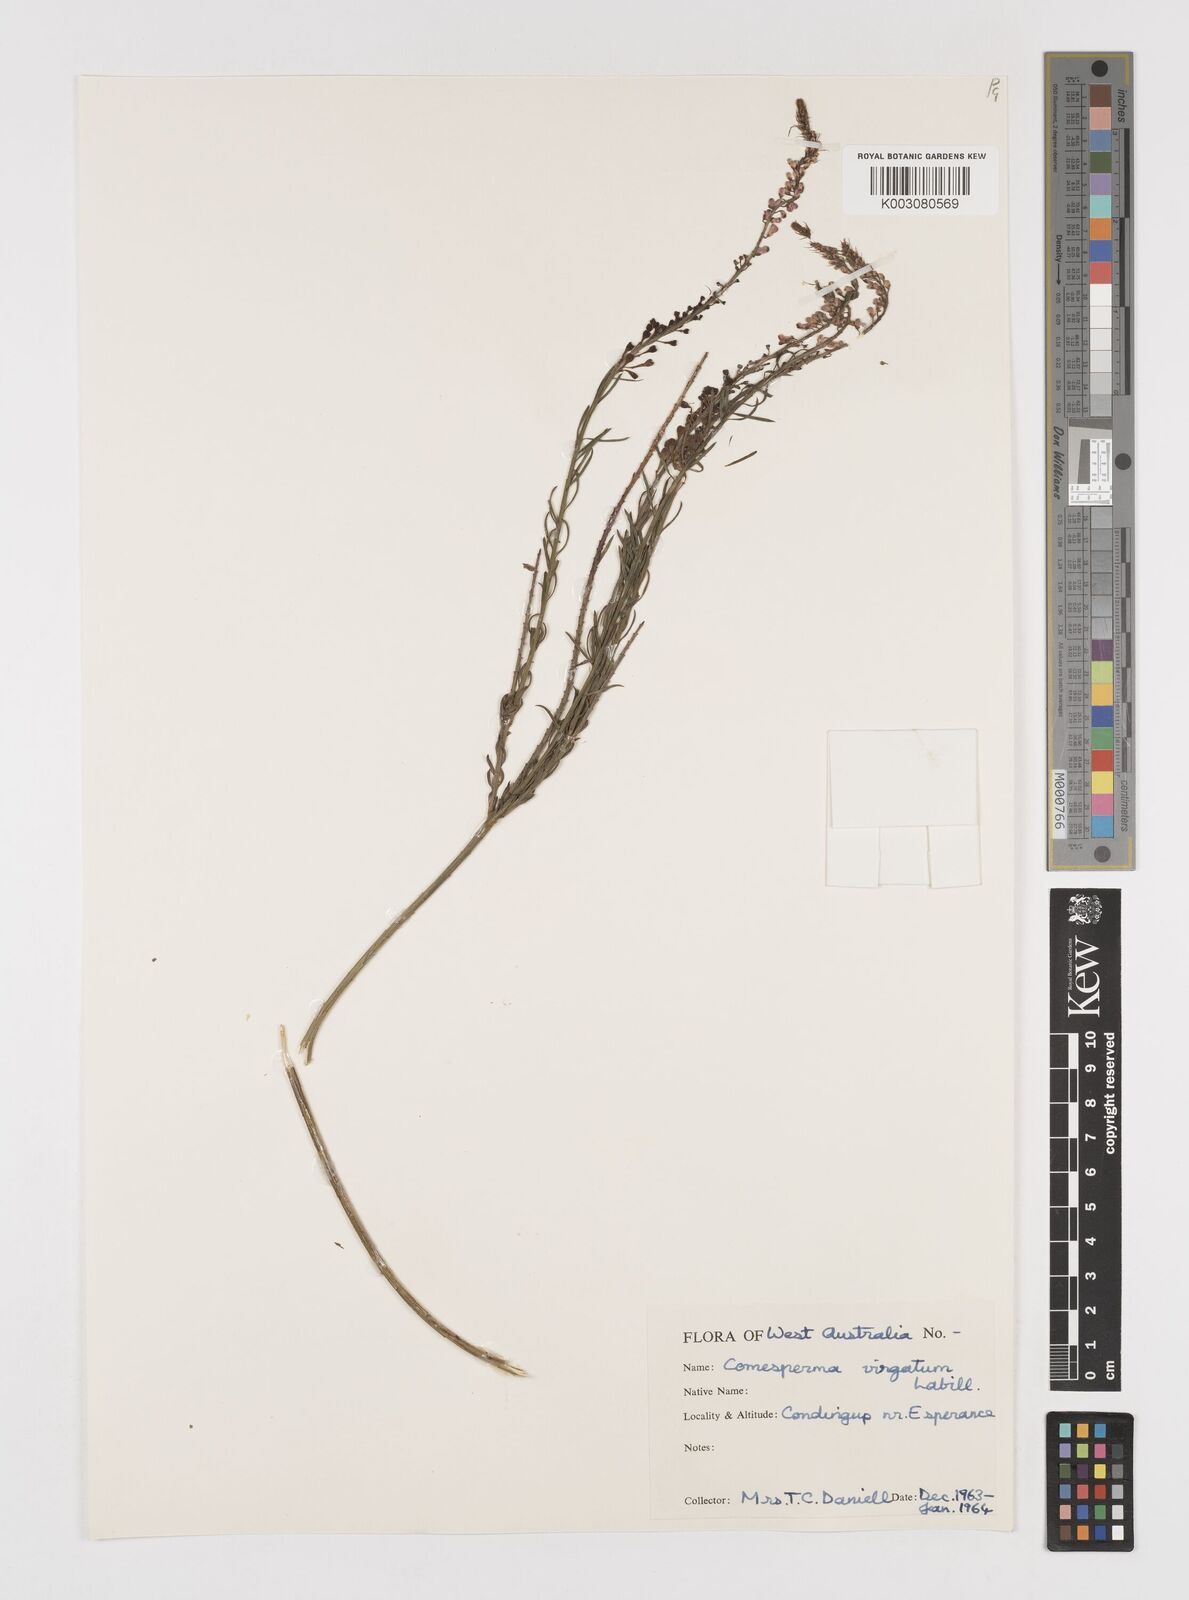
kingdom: Plantae
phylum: Tracheophyta
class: Magnoliopsida
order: Fabales
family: Polygalaceae
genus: Comesperma
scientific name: Comesperma virgatum
